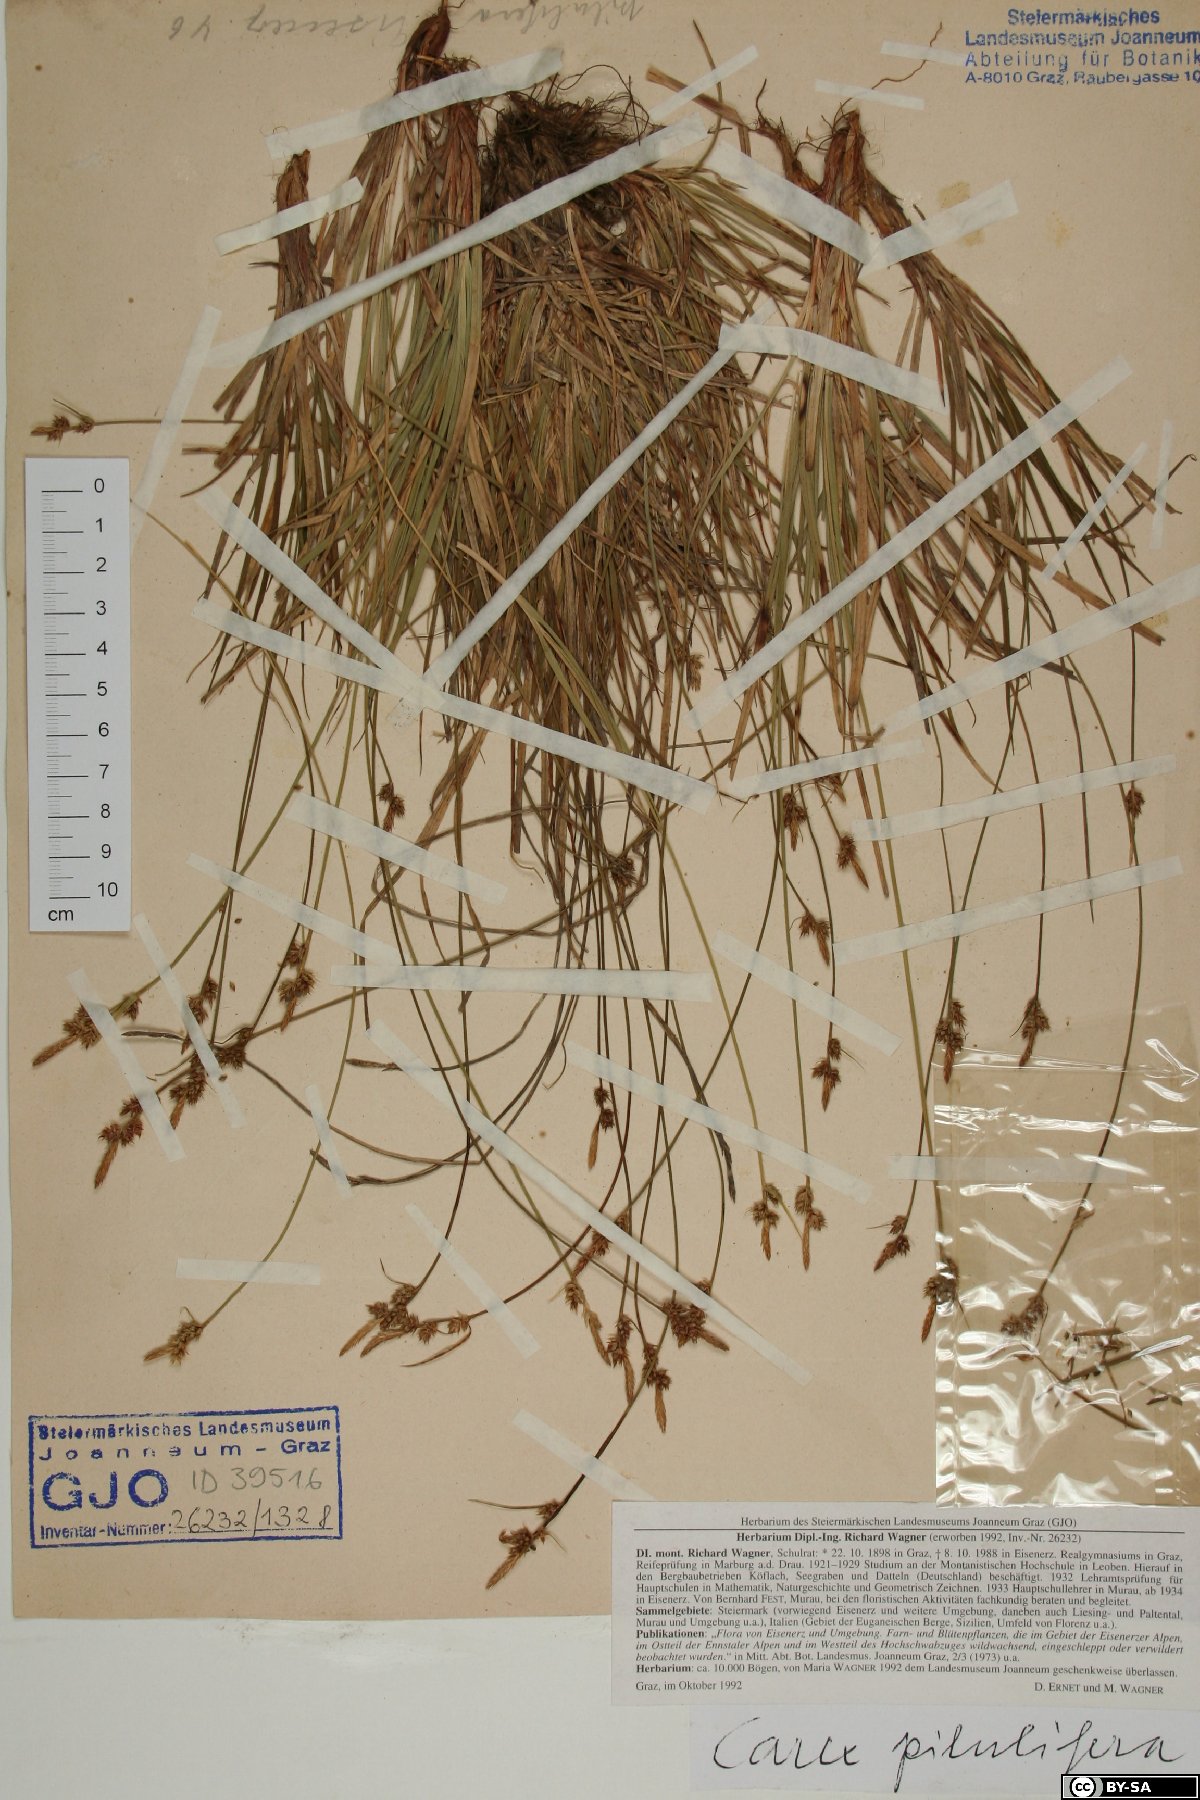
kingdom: Plantae
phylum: Tracheophyta
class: Liliopsida
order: Poales
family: Cyperaceae
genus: Carex
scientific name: Carex pilulifera
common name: Pill sedge
